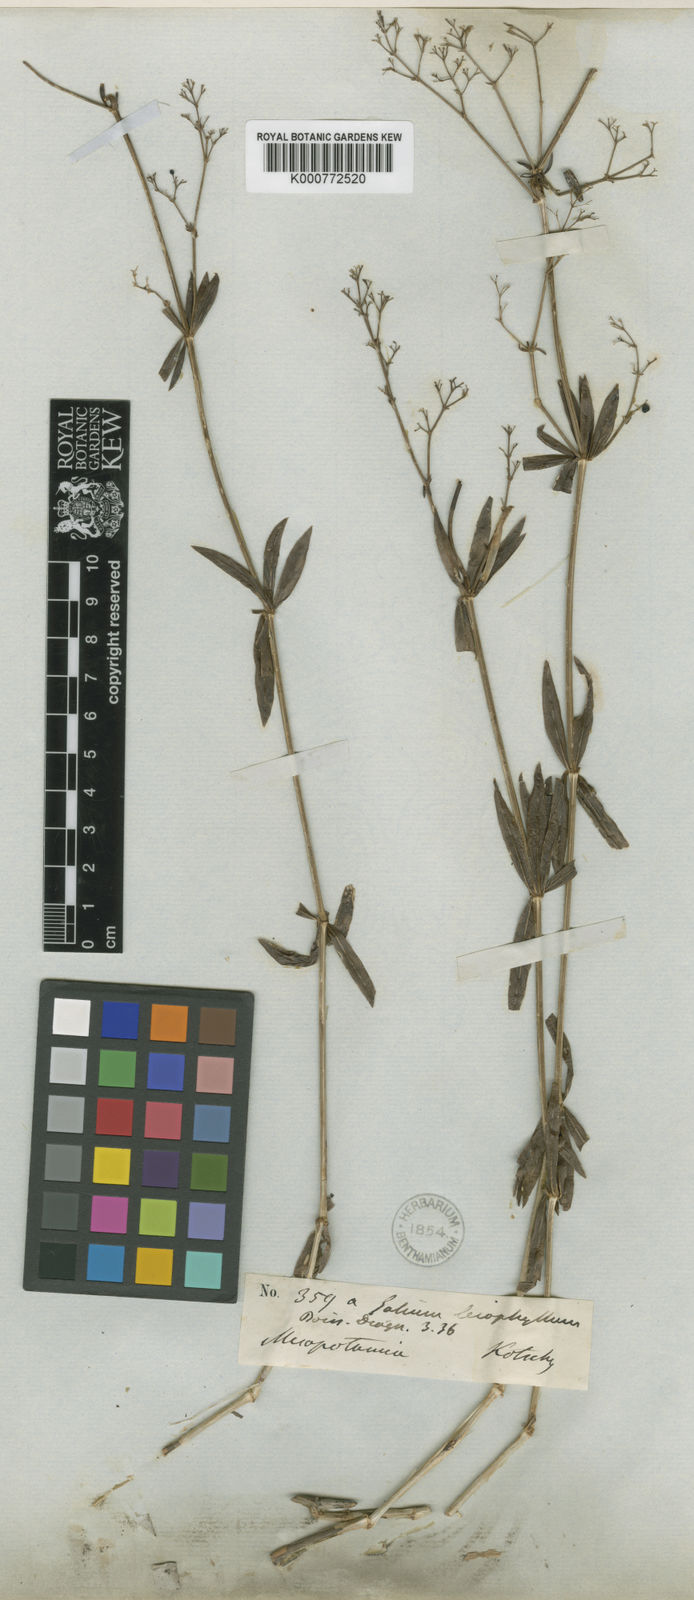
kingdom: Plantae
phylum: Tracheophyta
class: Magnoliopsida
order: Gentianales
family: Rubiaceae
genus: Galium
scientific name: Galium subvelutinum
